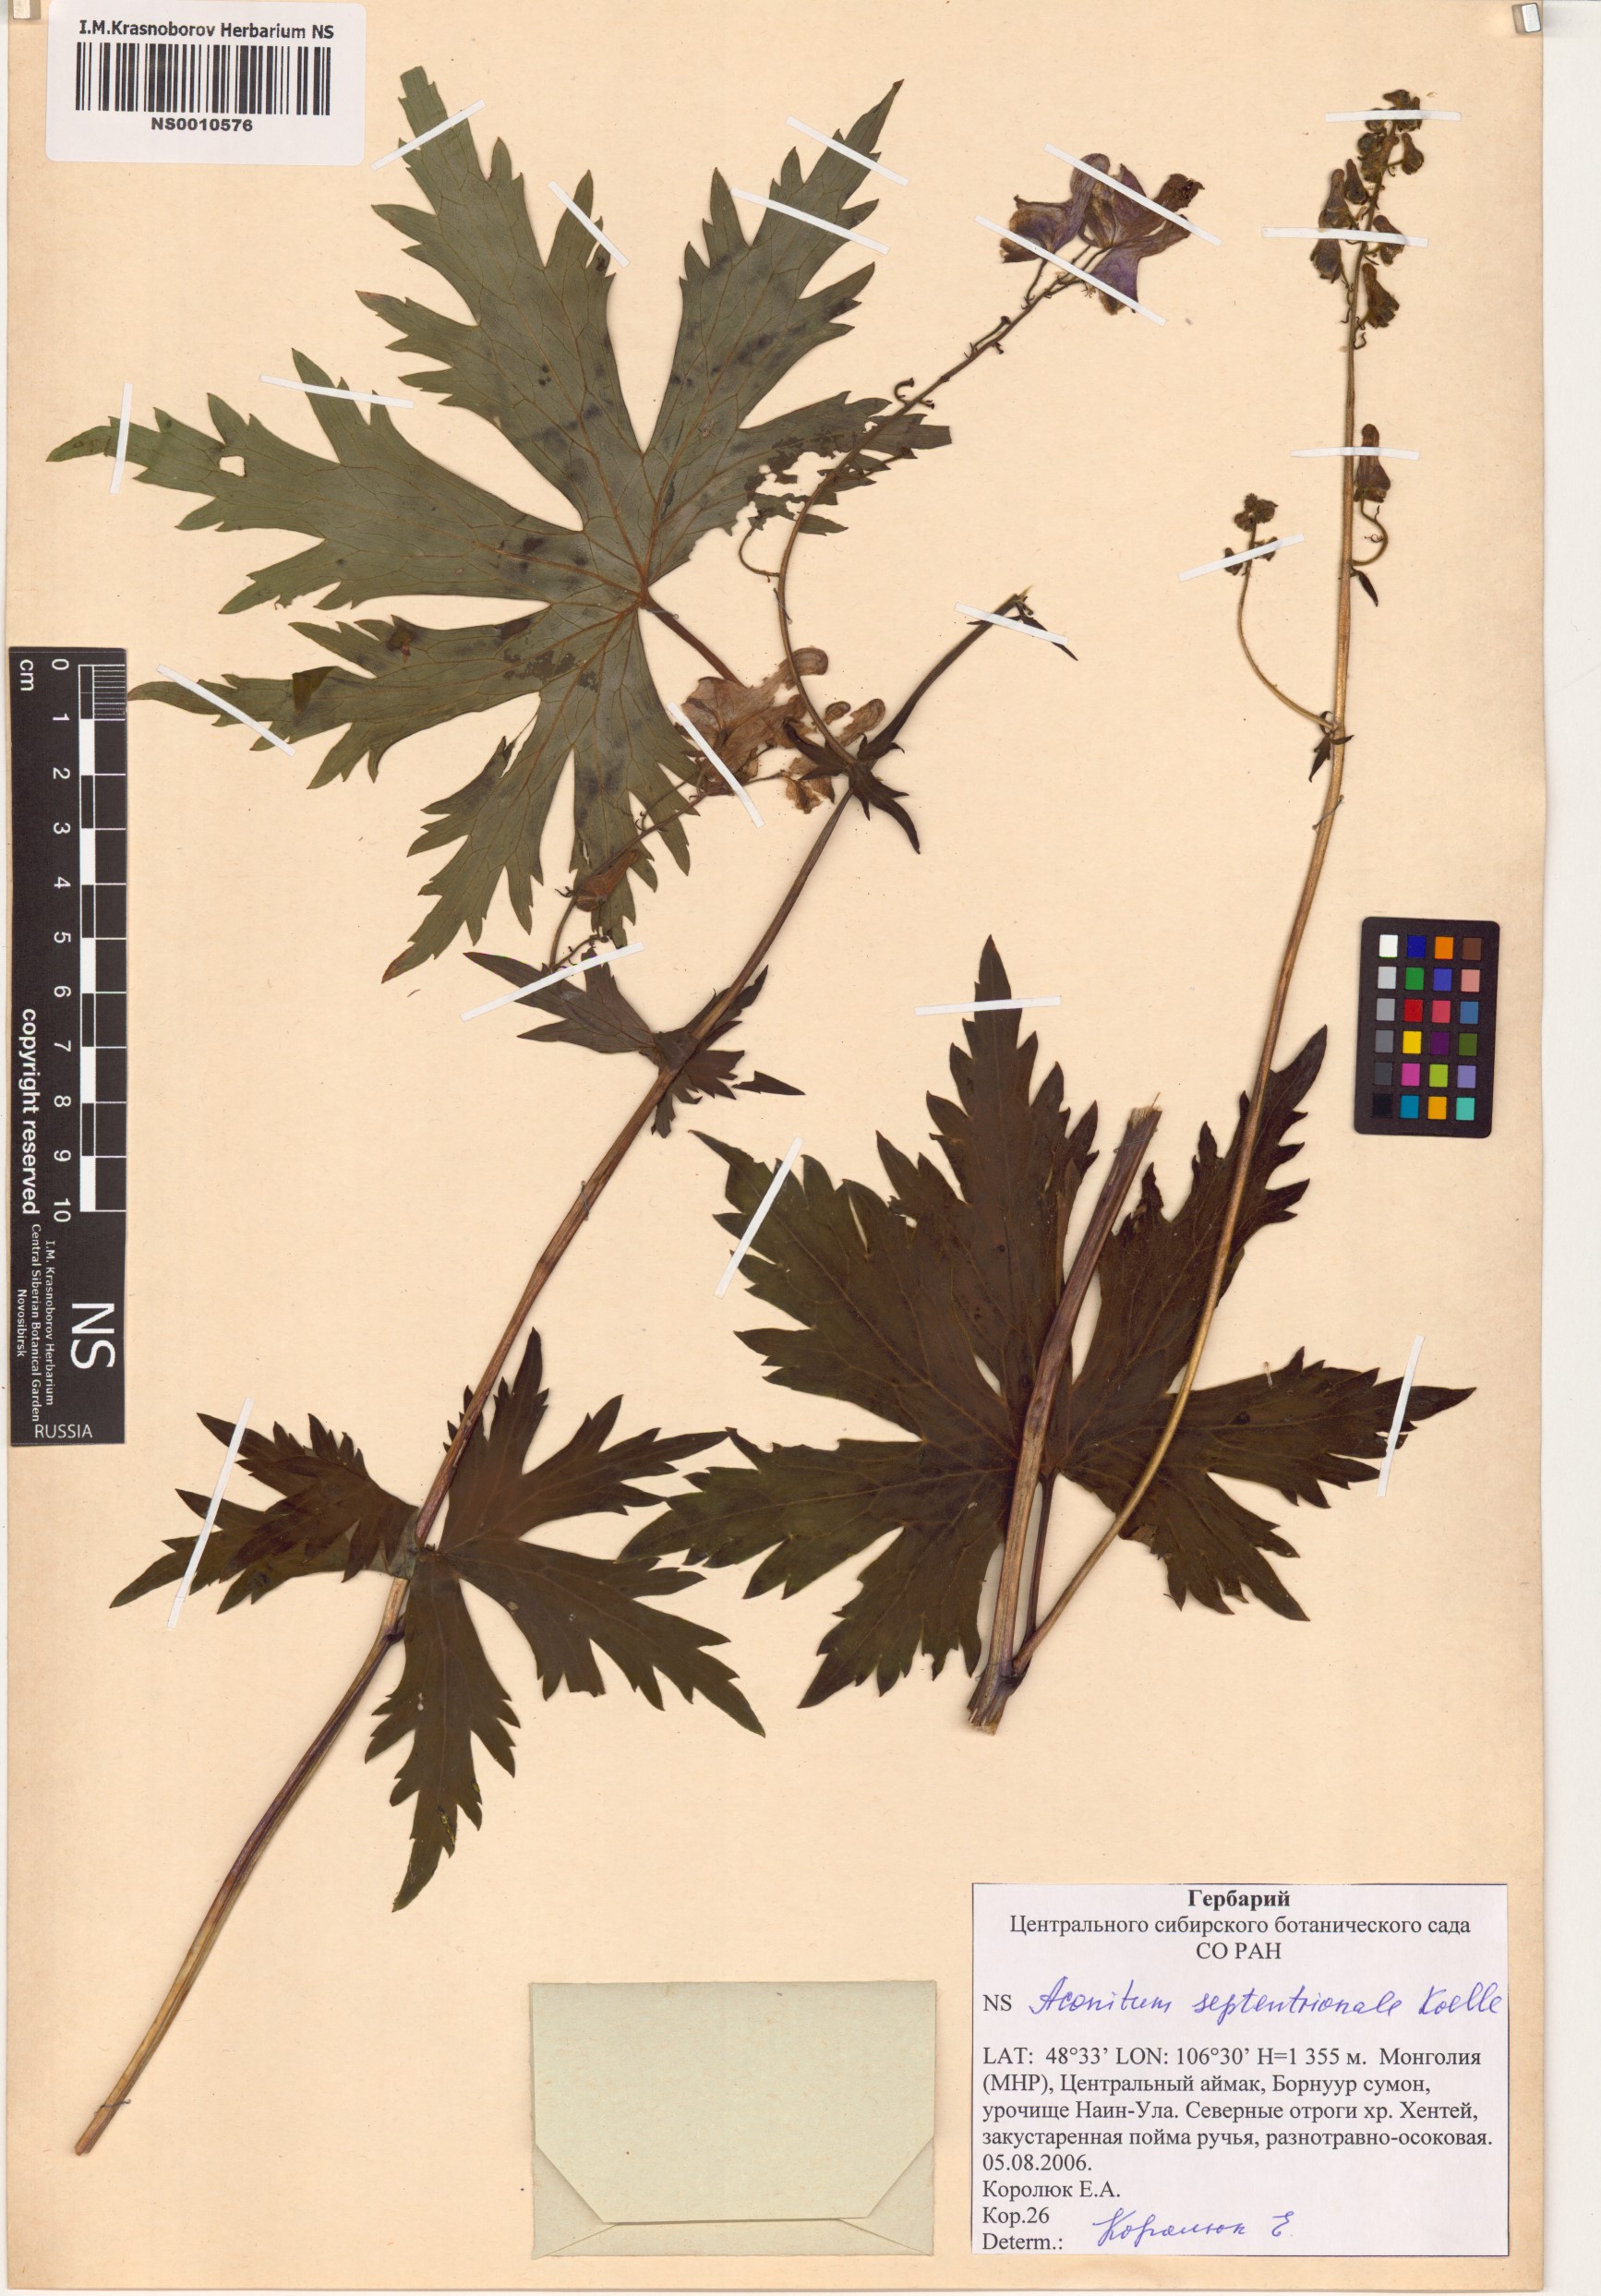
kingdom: Plantae
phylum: Tracheophyta
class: Magnoliopsida
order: Ranunculales
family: Ranunculaceae
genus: Aconitum
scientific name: Aconitum septentrionale
